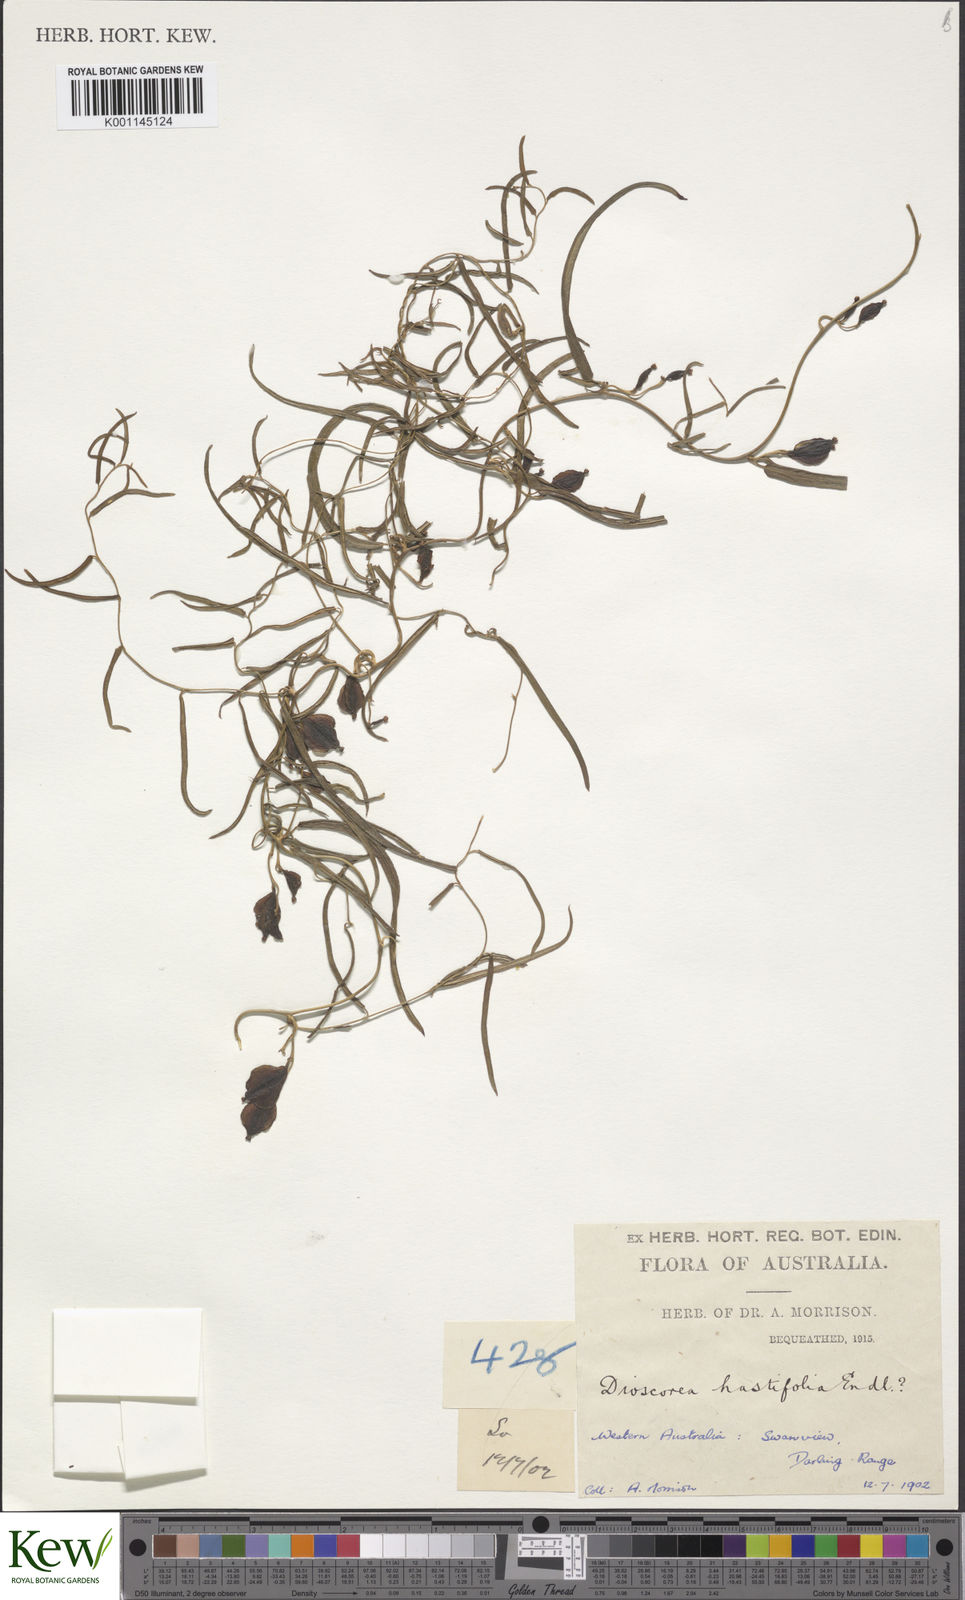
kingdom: Plantae
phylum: Tracheophyta
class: Liliopsida
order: Dioscoreales
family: Dioscoreaceae
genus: Dioscorea
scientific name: Dioscorea hastifolia
